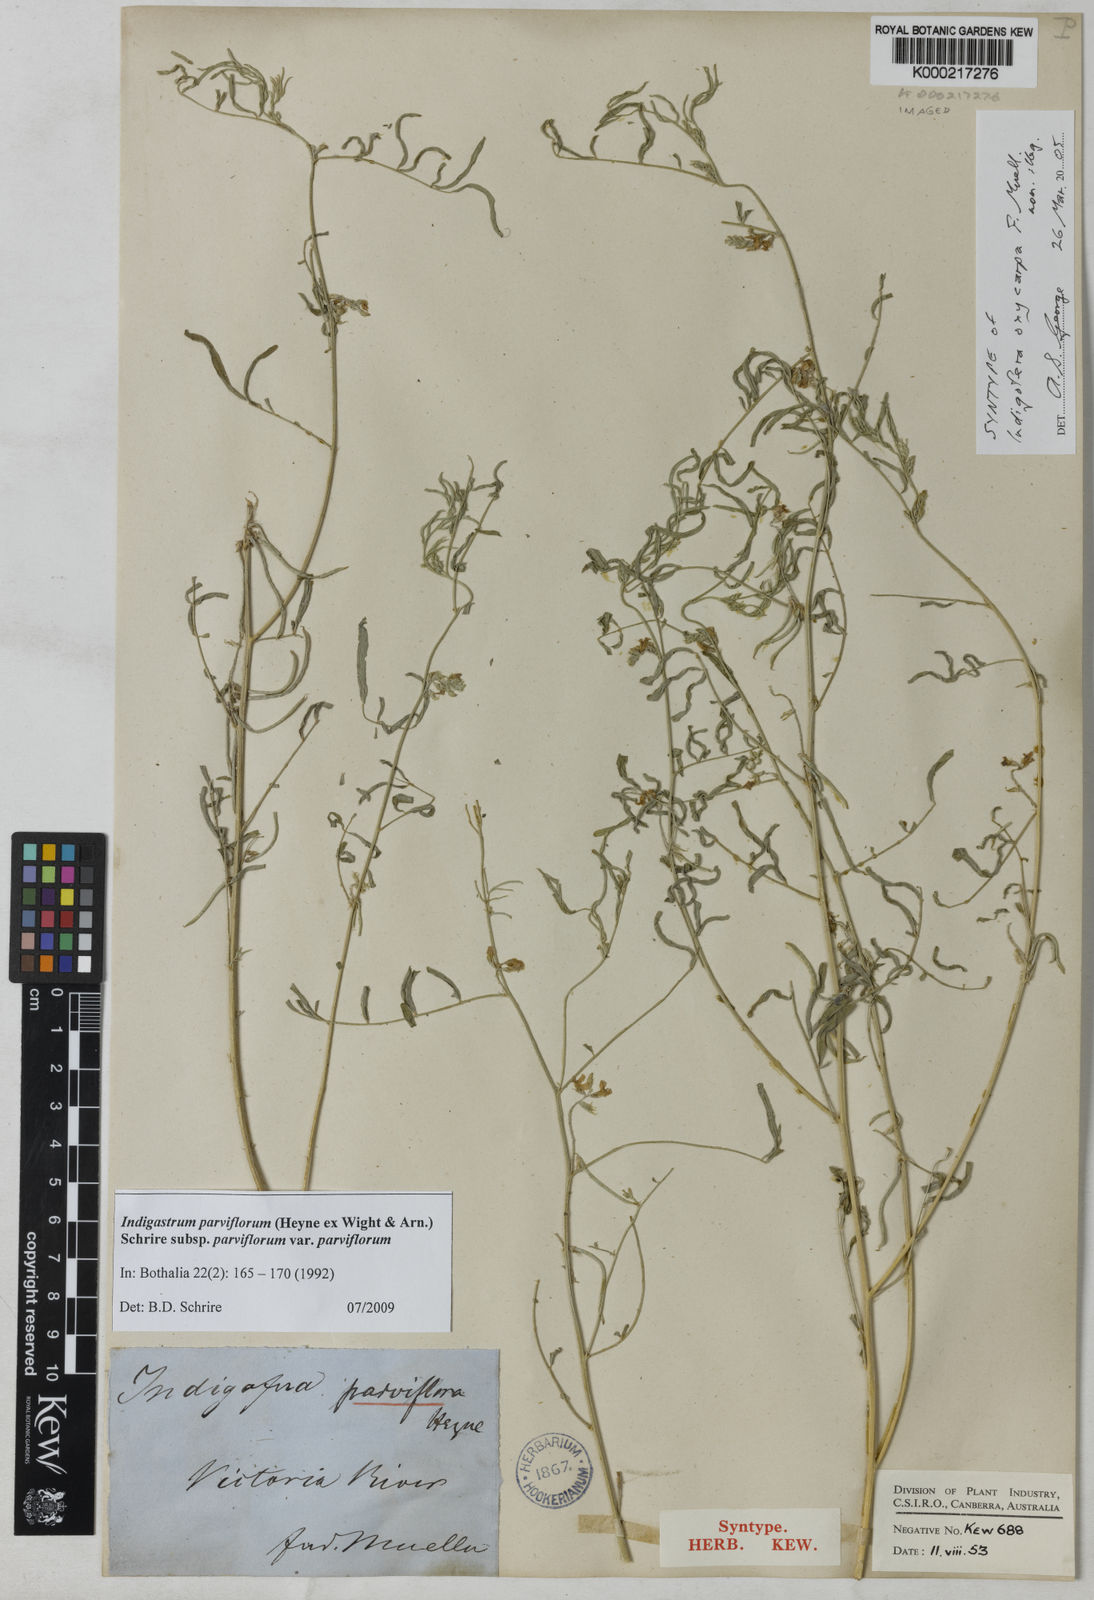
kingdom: Plantae
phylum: Tracheophyta
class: Magnoliopsida
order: Fabales
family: Fabaceae
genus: Indigastrum
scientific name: Indigastrum parviflorum
